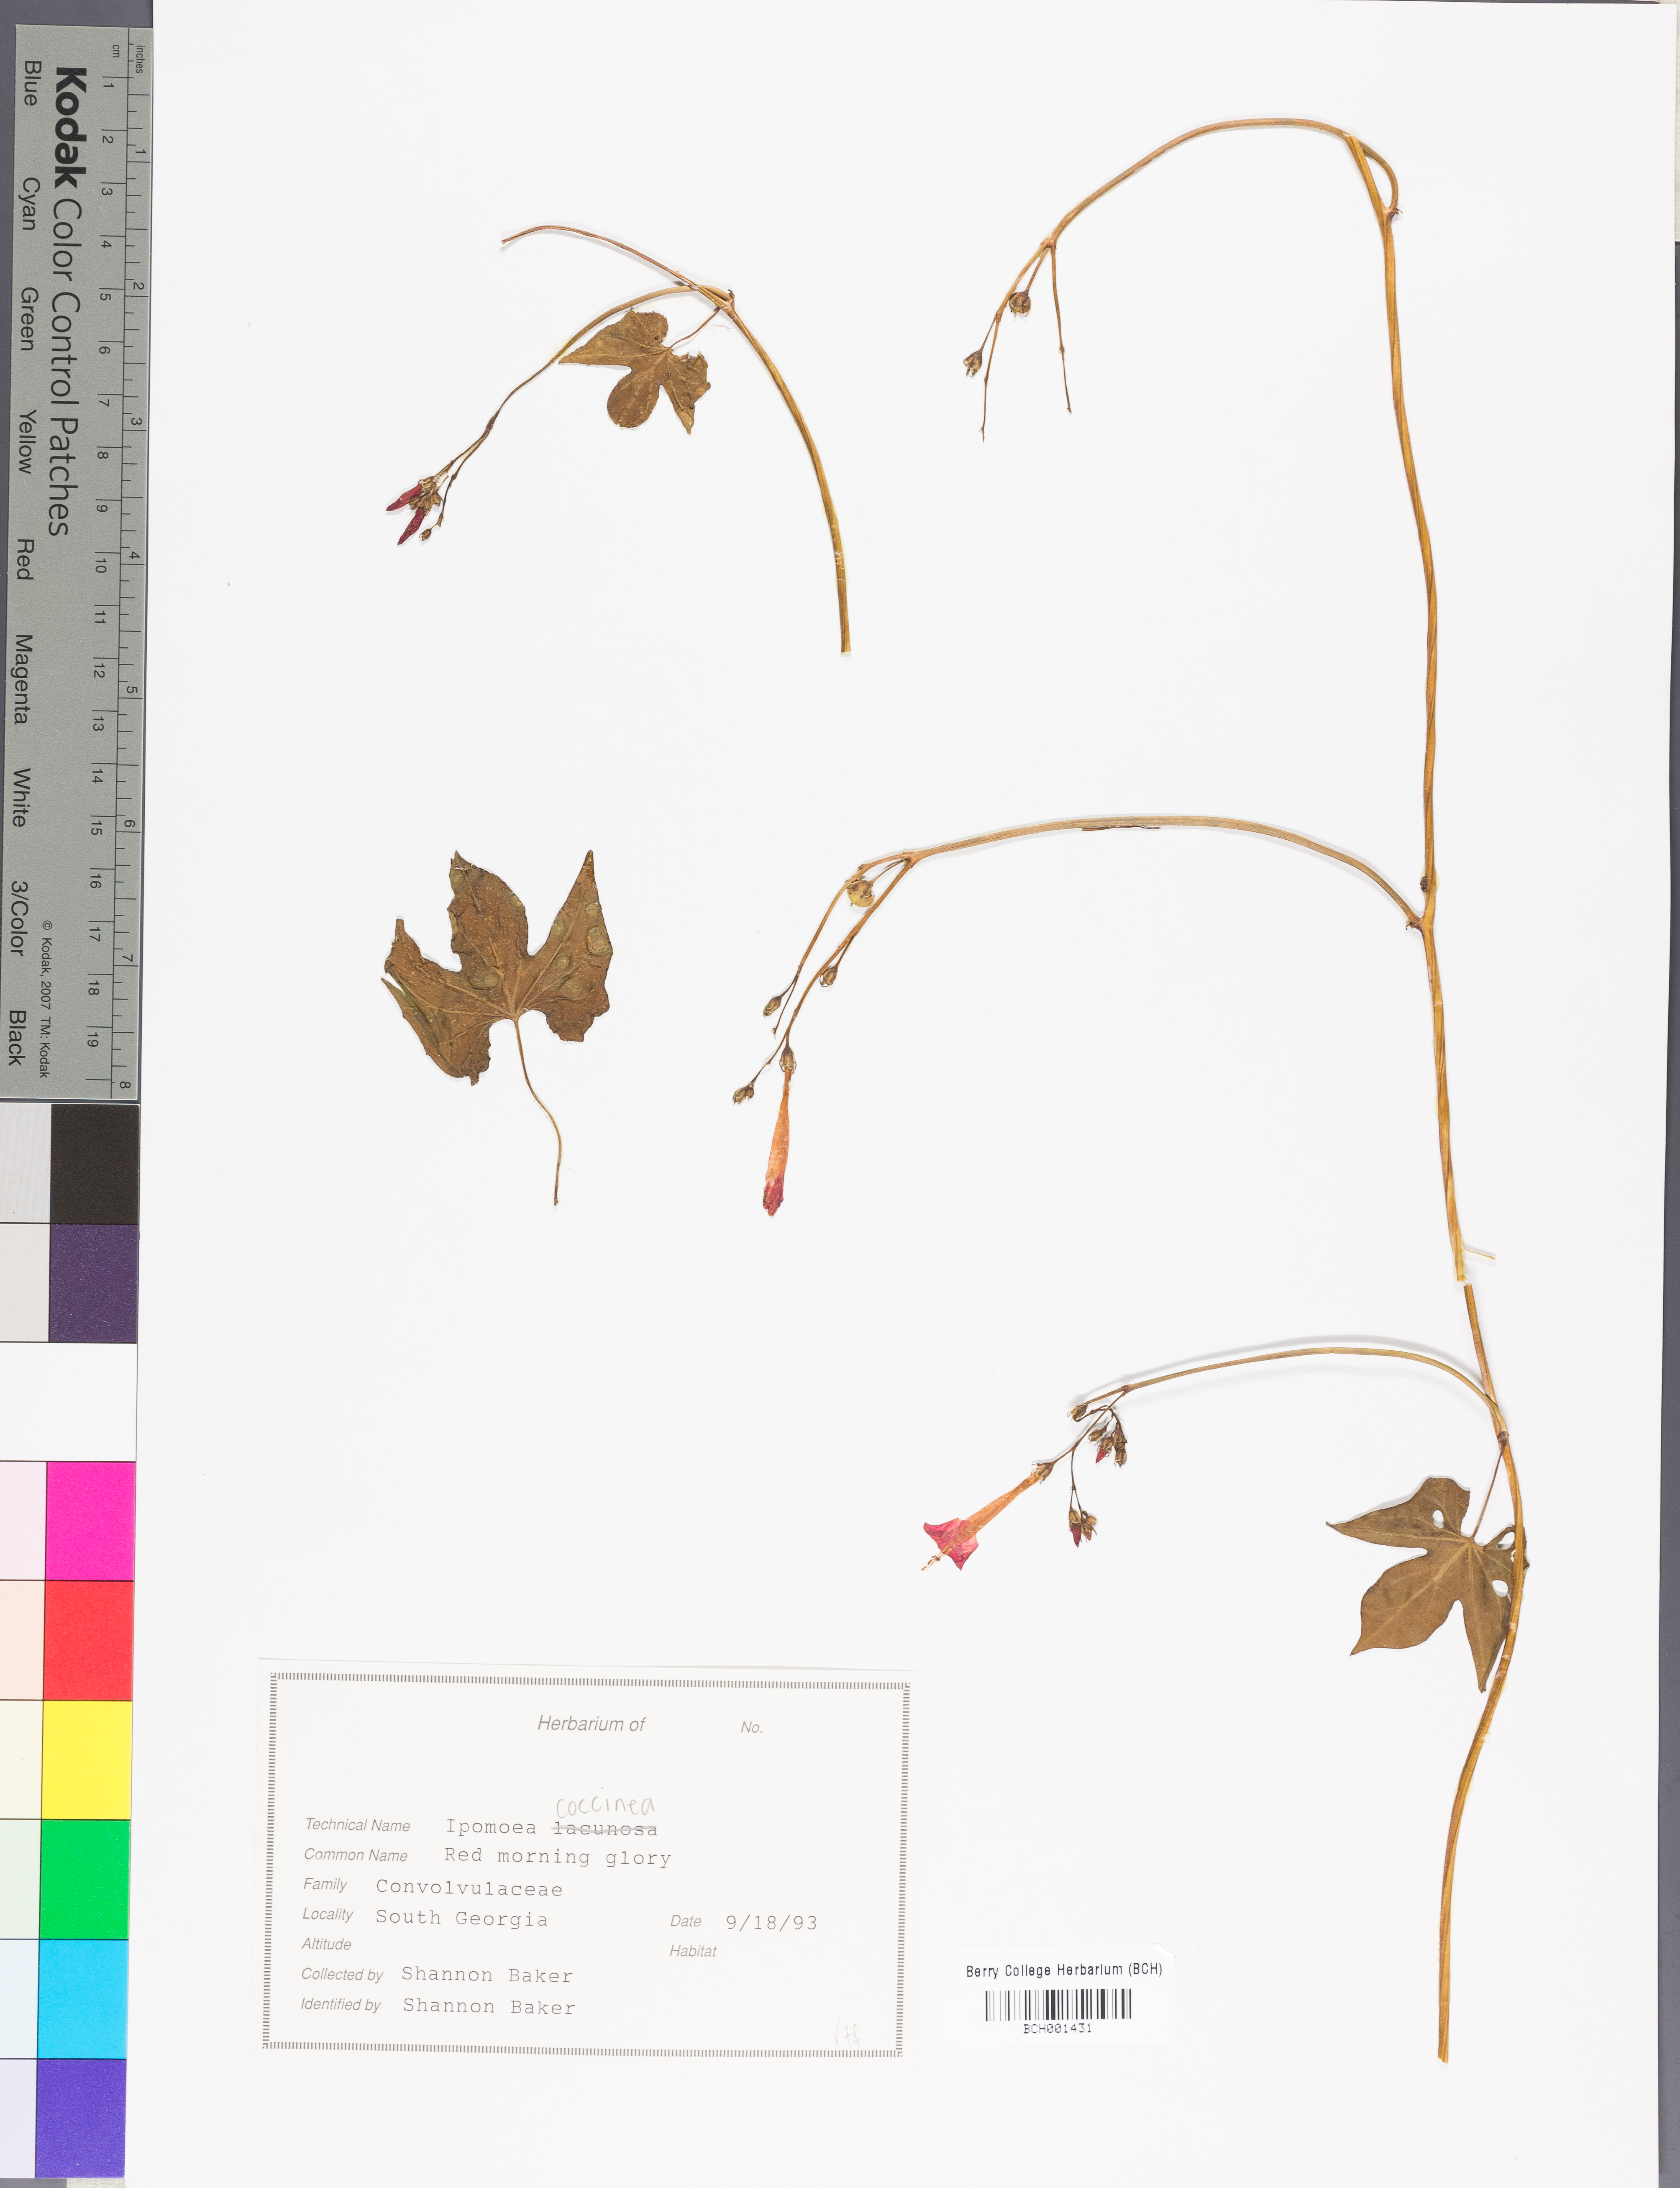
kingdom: Plantae
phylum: Tracheophyta
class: Magnoliopsida
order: Solanales
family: Convolvulaceae
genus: Ipomoea
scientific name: Ipomoea coccinea
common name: Red morning-glory
